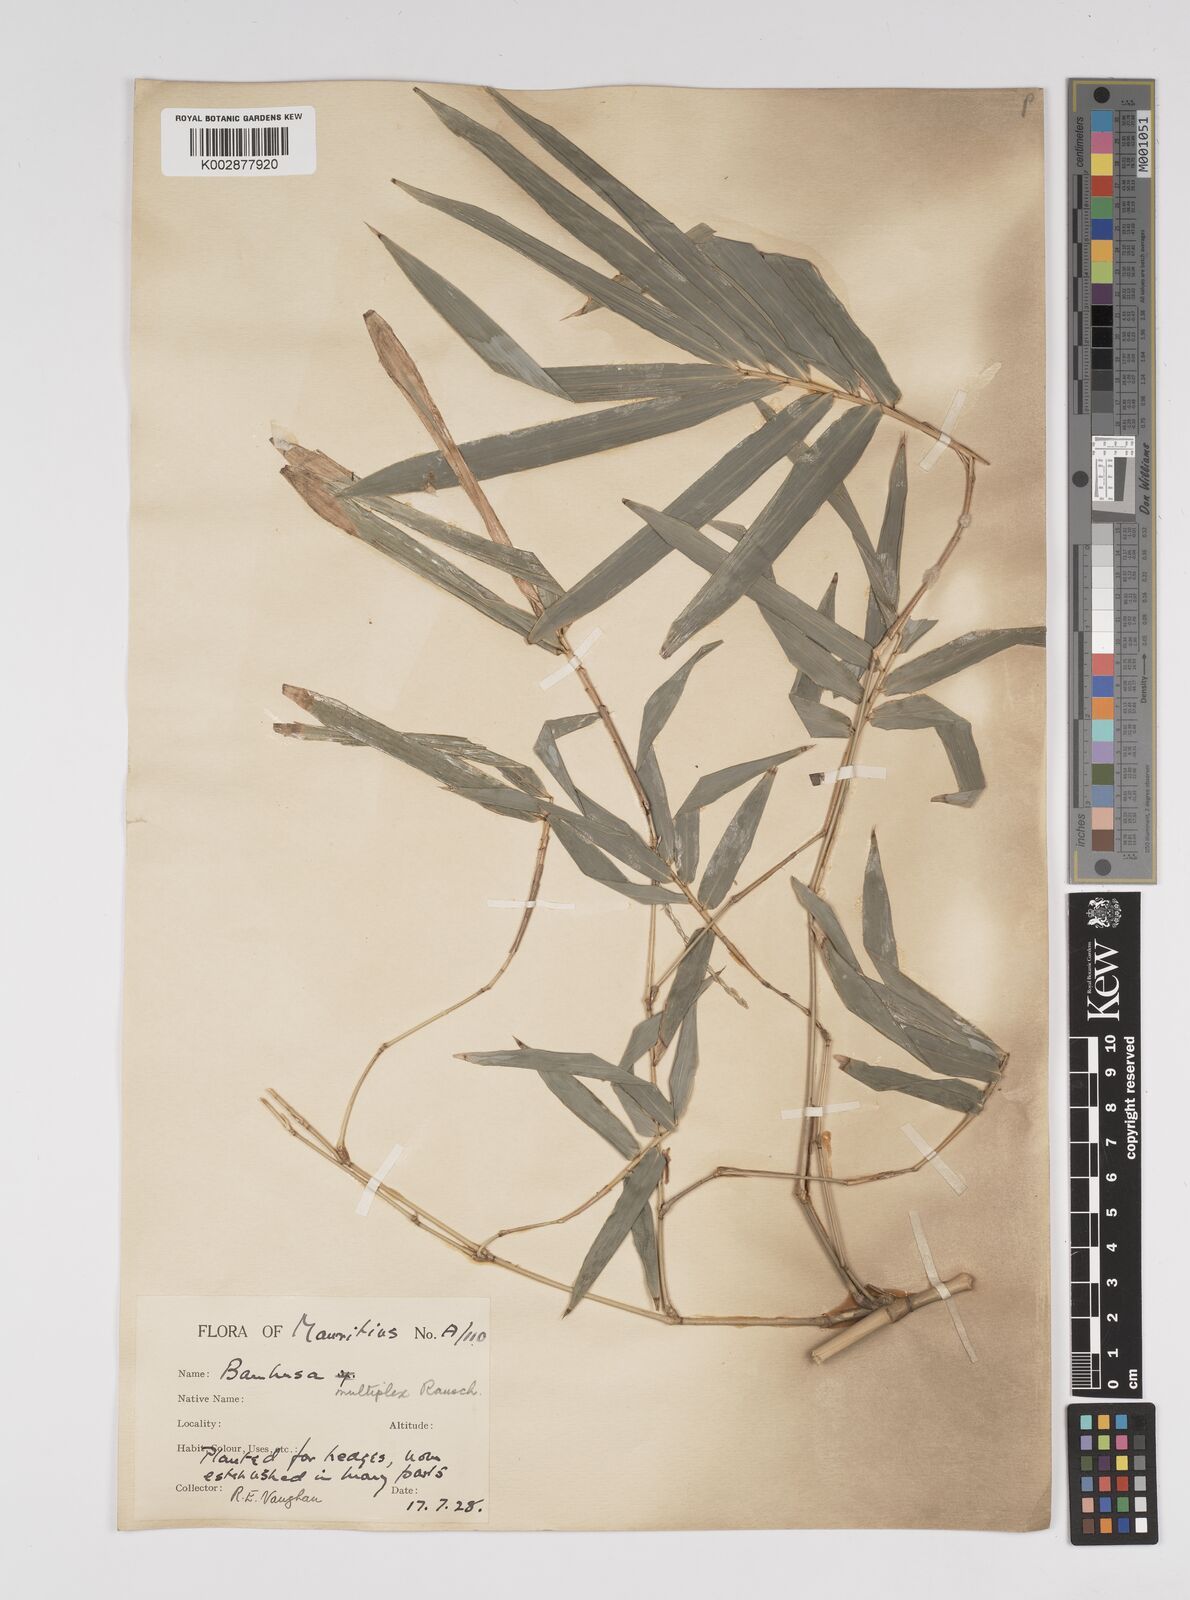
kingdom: Plantae
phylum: Tracheophyta
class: Liliopsida
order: Poales
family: Poaceae
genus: Bambusa
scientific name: Bambusa multiplex
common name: Hedge bamboo
